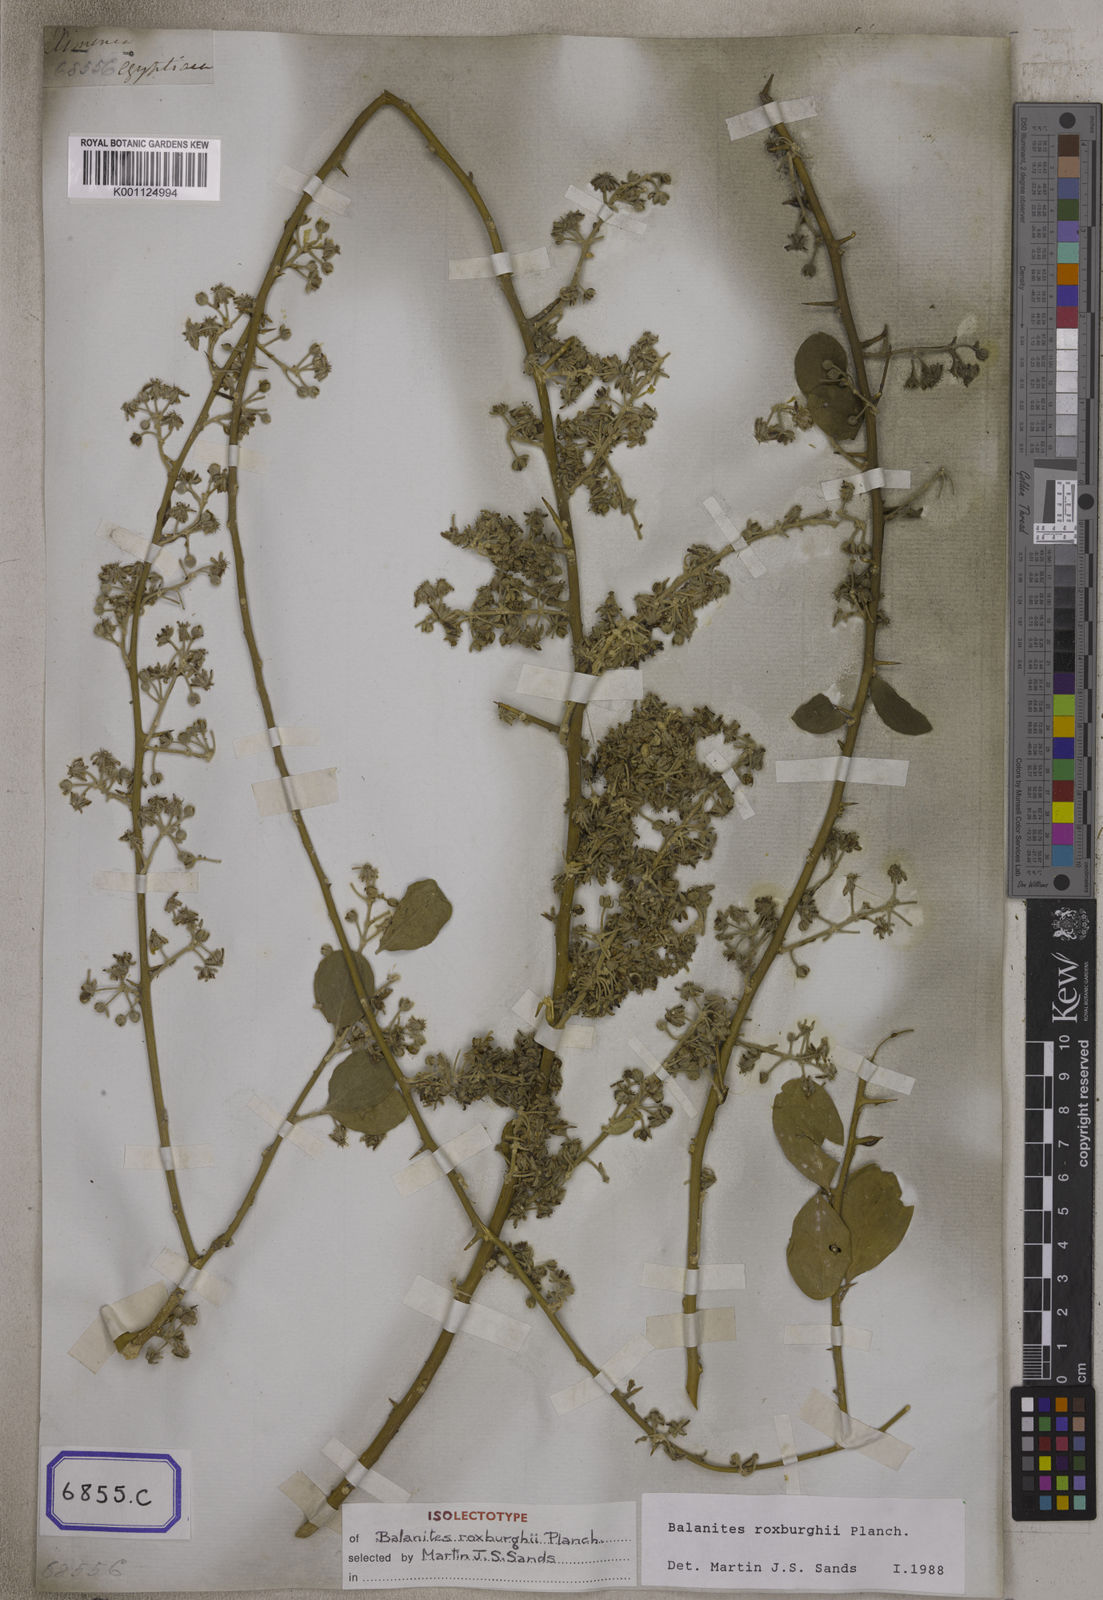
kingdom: Plantae
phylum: Tracheophyta
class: Magnoliopsida
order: Zygophyllales
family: Zygophyllaceae
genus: Balanites
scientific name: Balanites aegyptiaca
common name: Balanites
